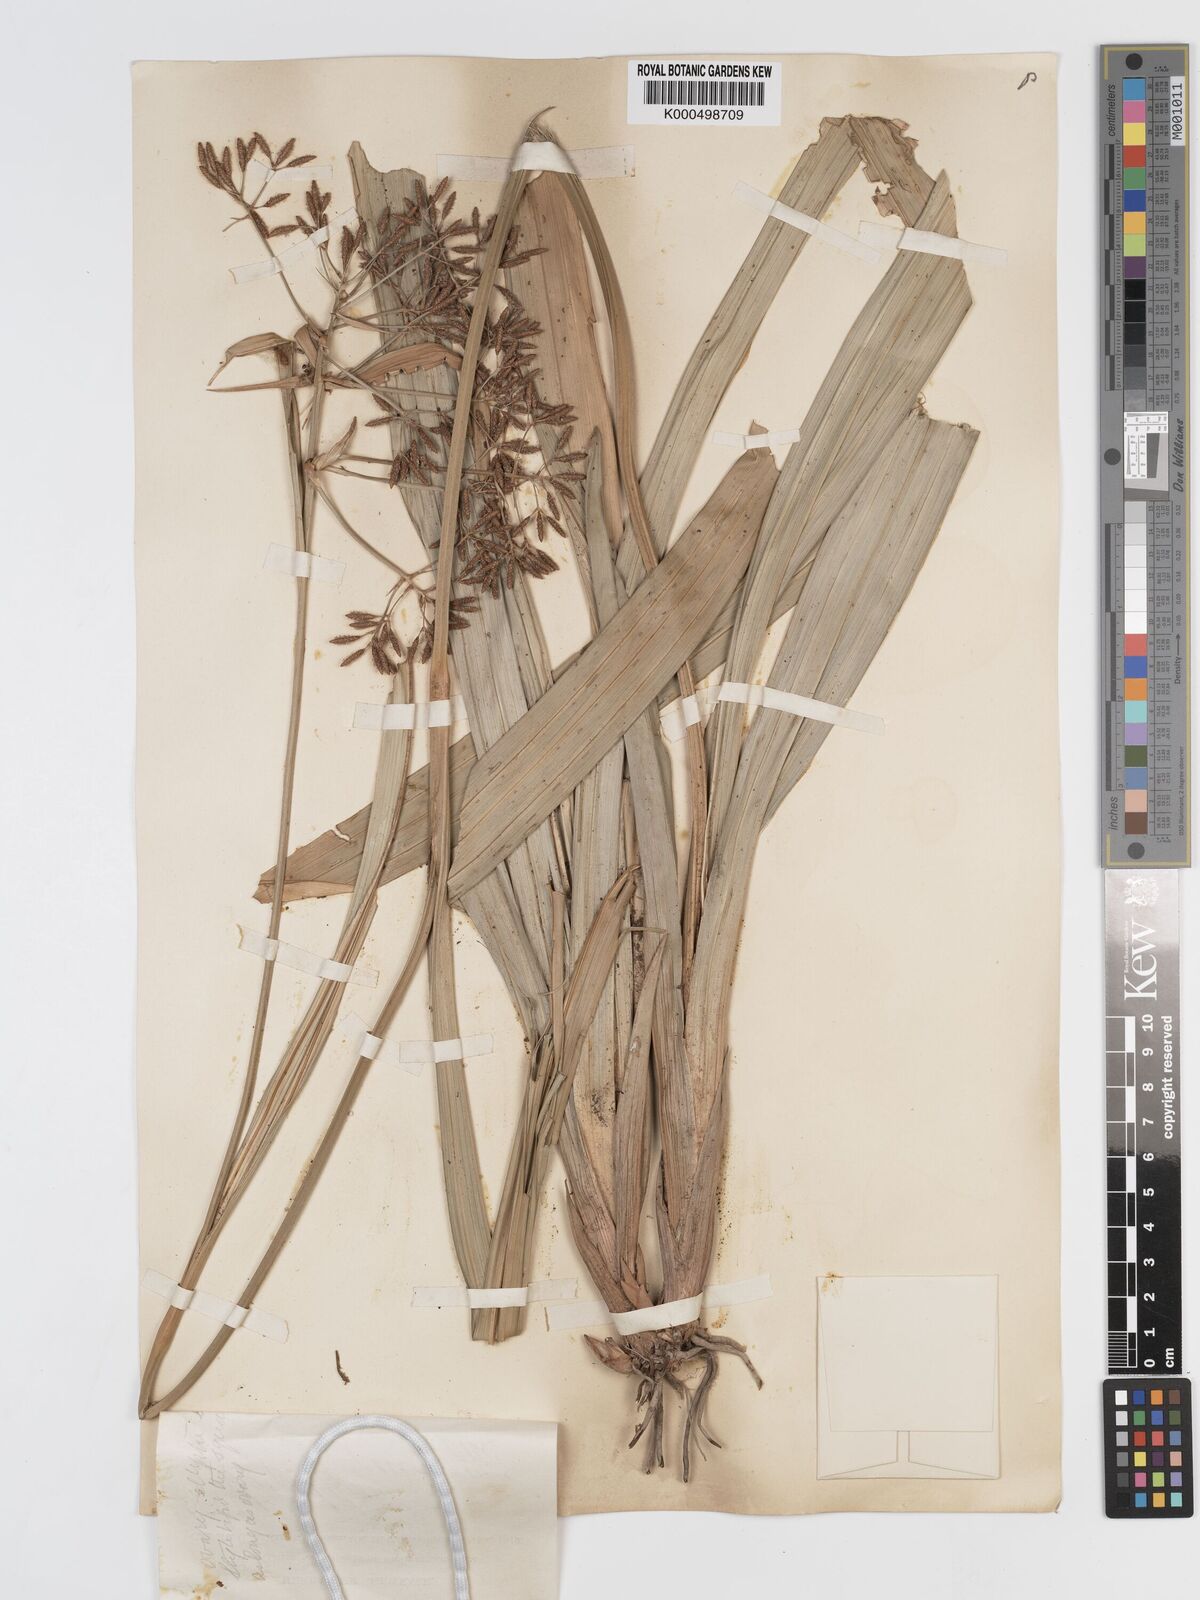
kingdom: Plantae
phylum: Tracheophyta
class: Liliopsida
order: Poales
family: Cyperaceae
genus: Hypolytrum
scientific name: Hypolytrum nemorum
